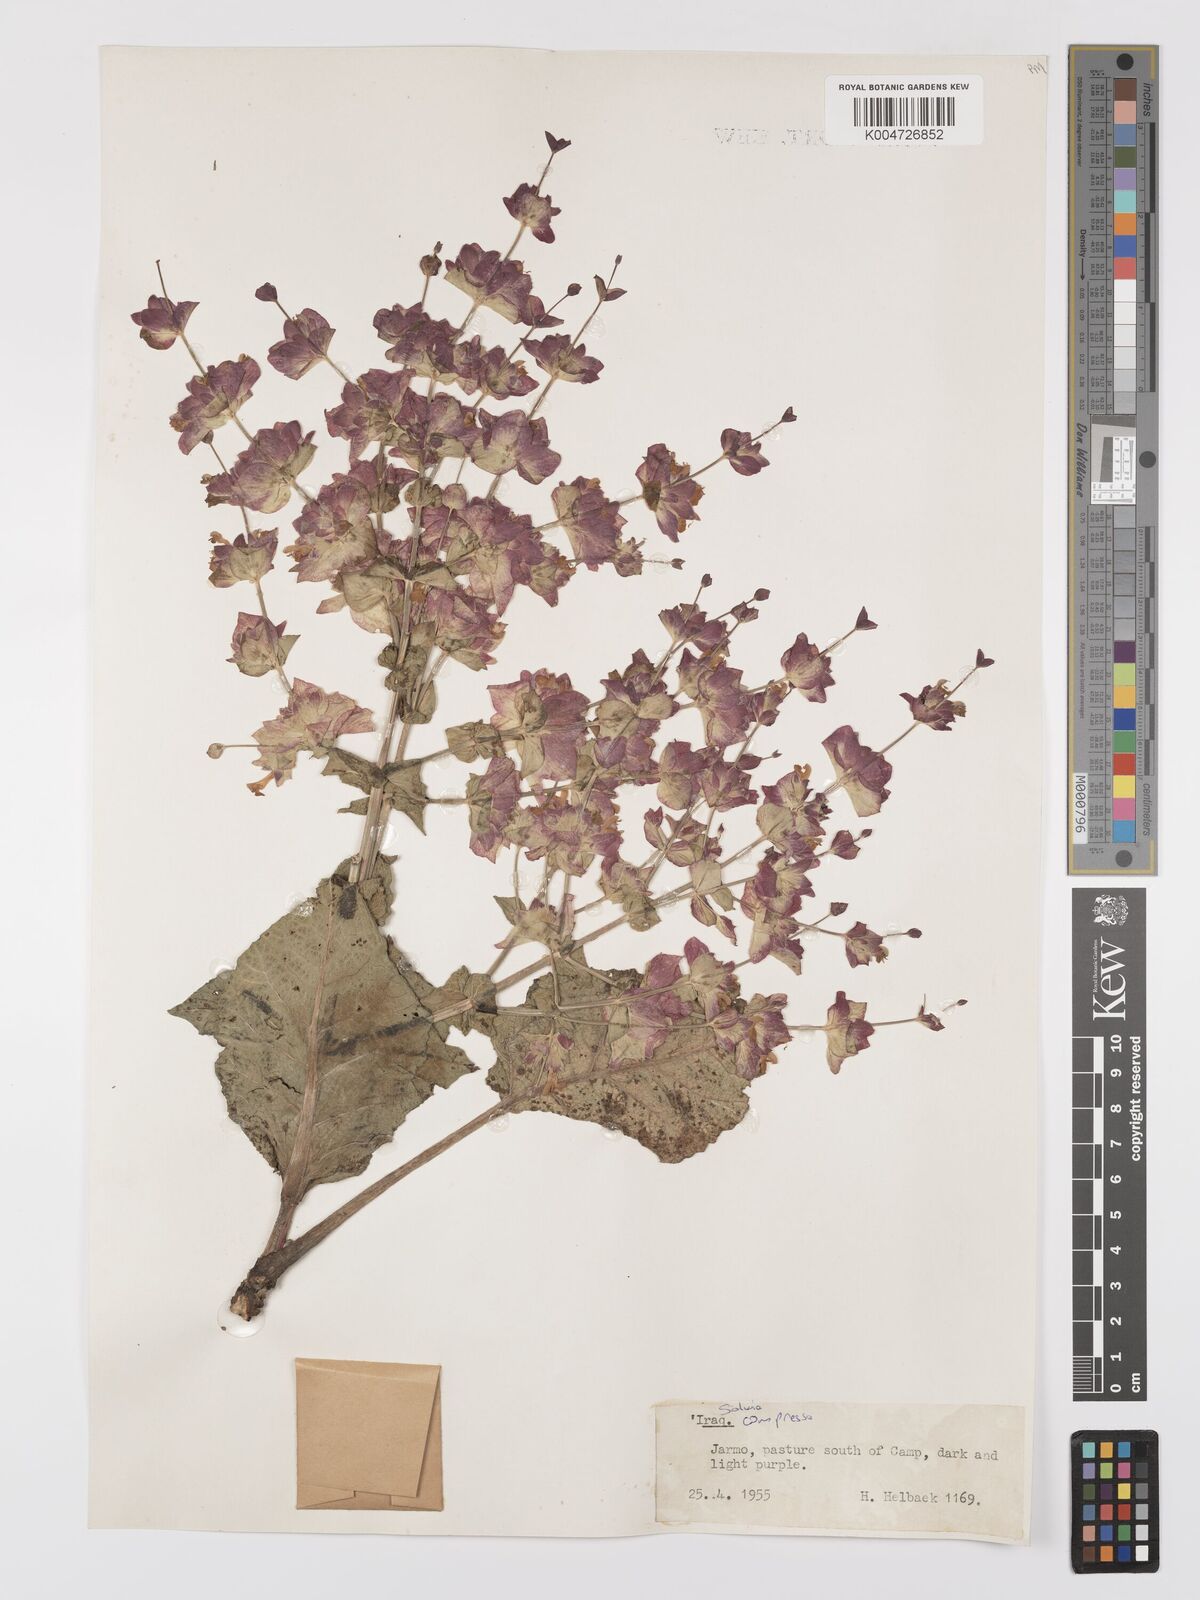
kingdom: Plantae
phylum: Tracheophyta
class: Magnoliopsida
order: Lamiales
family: Lamiaceae
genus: Salvia
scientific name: Salvia
